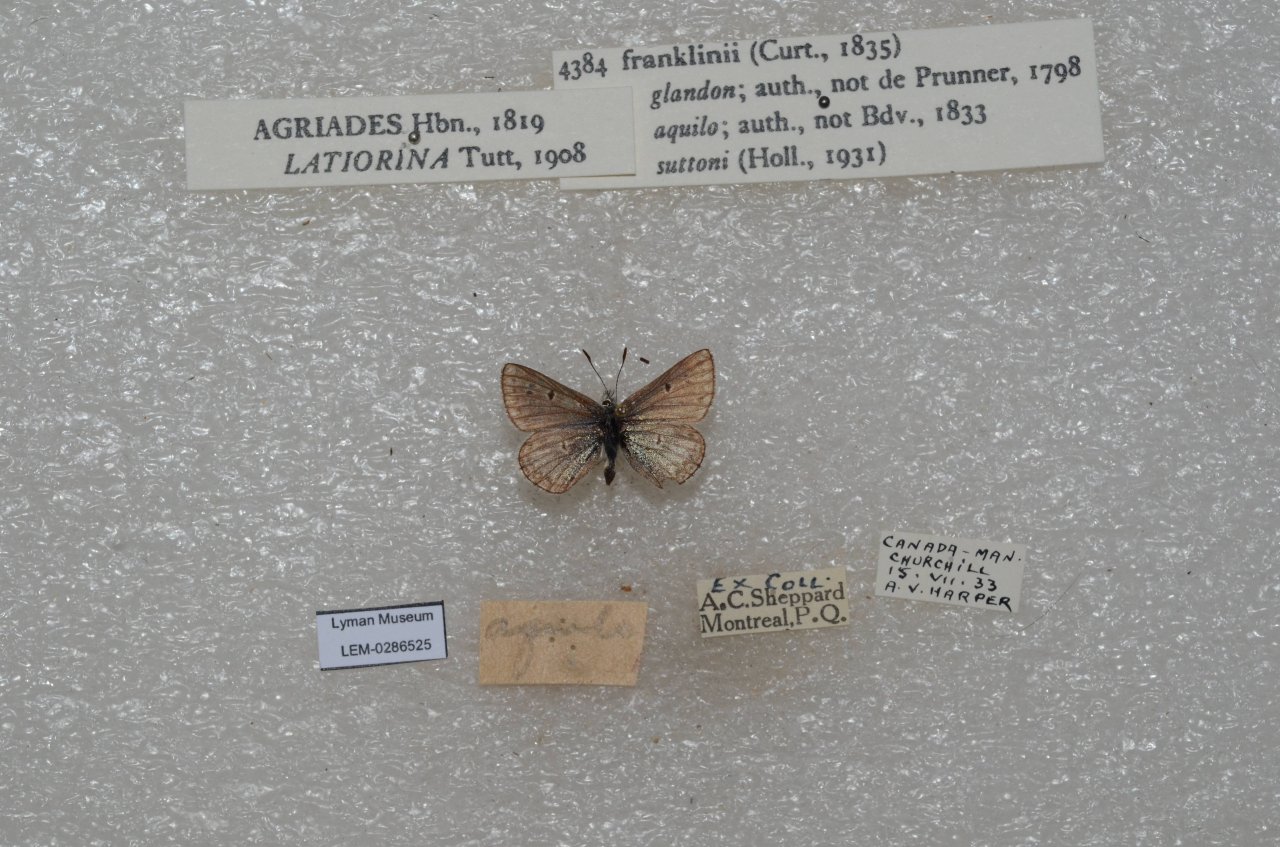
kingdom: Animalia
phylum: Arthropoda
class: Insecta
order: Lepidoptera
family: Lycaenidae
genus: Agriades
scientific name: Agriades glandon
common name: Arctic Blue
